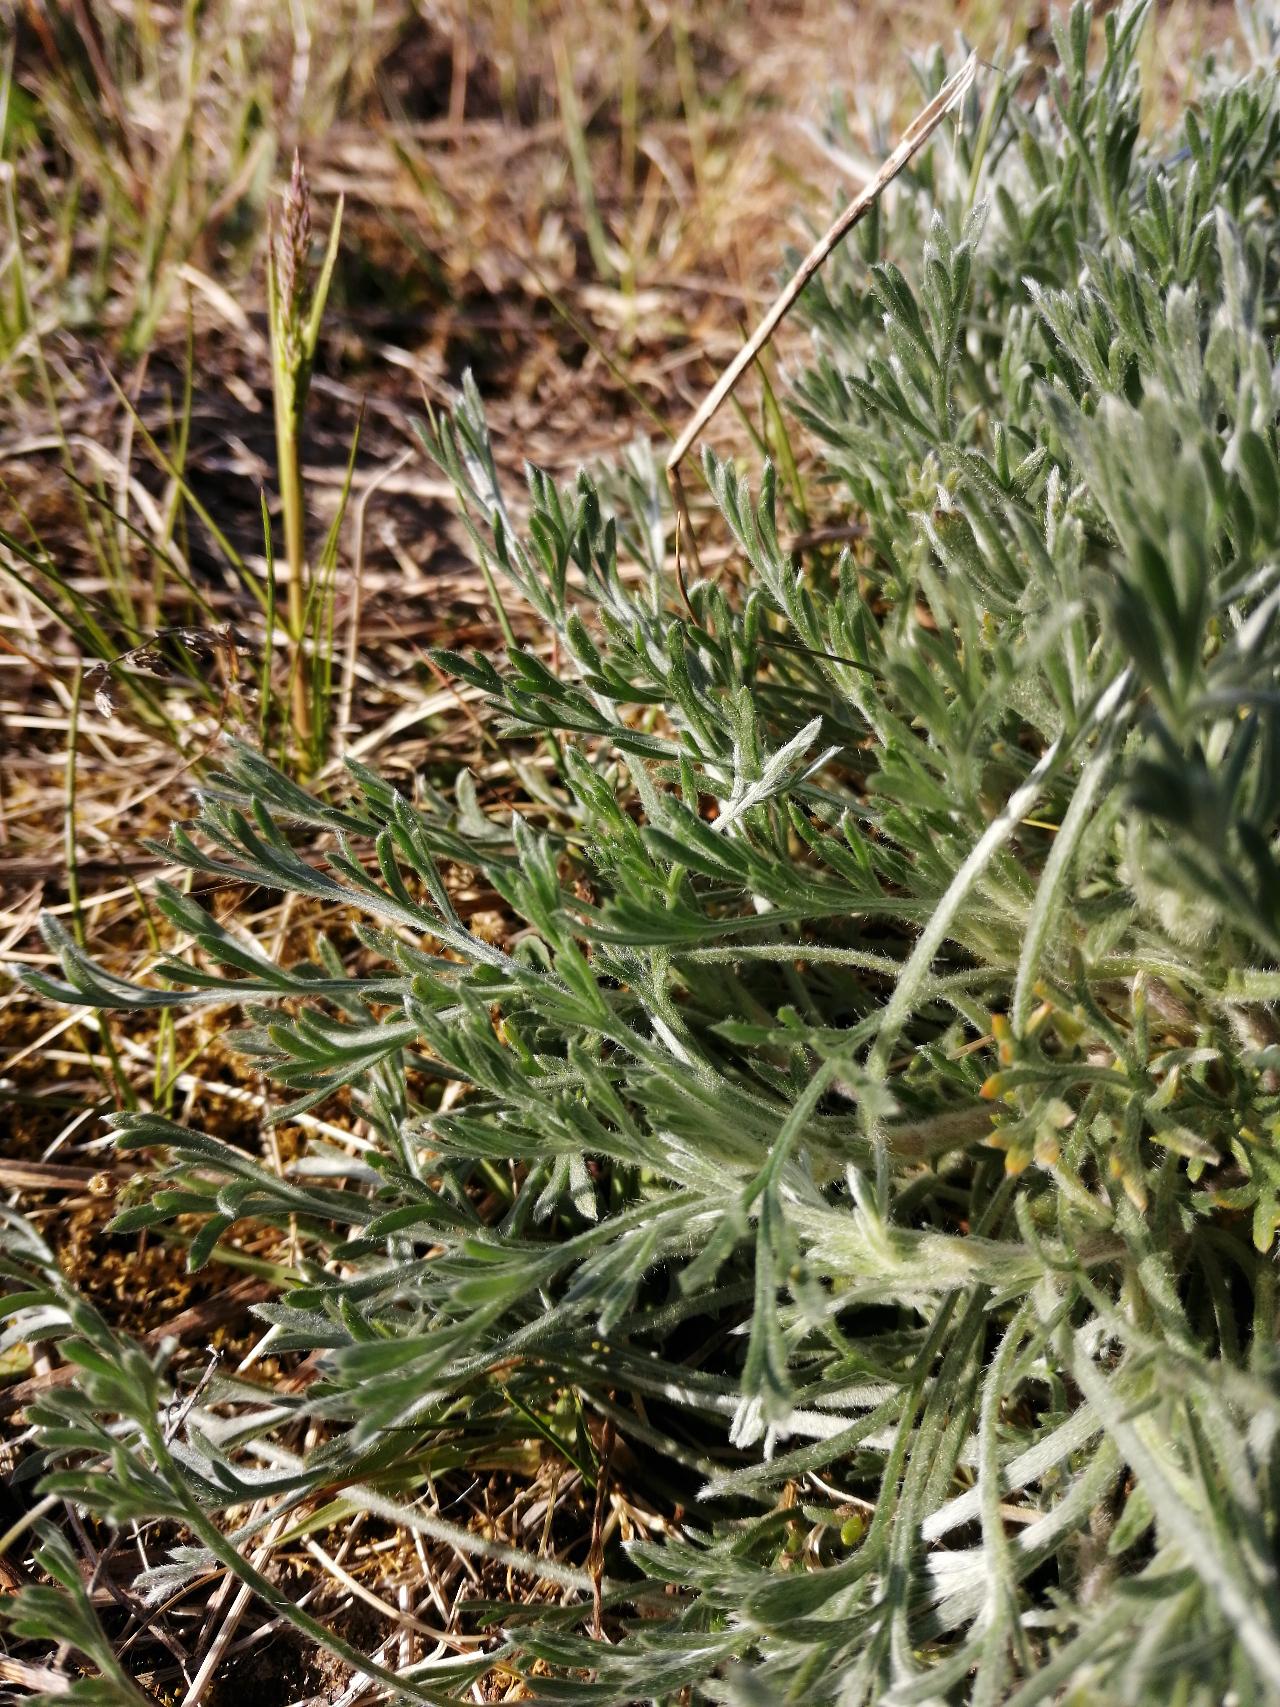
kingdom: Plantae
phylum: Tracheophyta
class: Magnoliopsida
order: Asterales
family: Asteraceae
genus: Artemisia
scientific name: Artemisia campestris
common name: Mark-bynke
